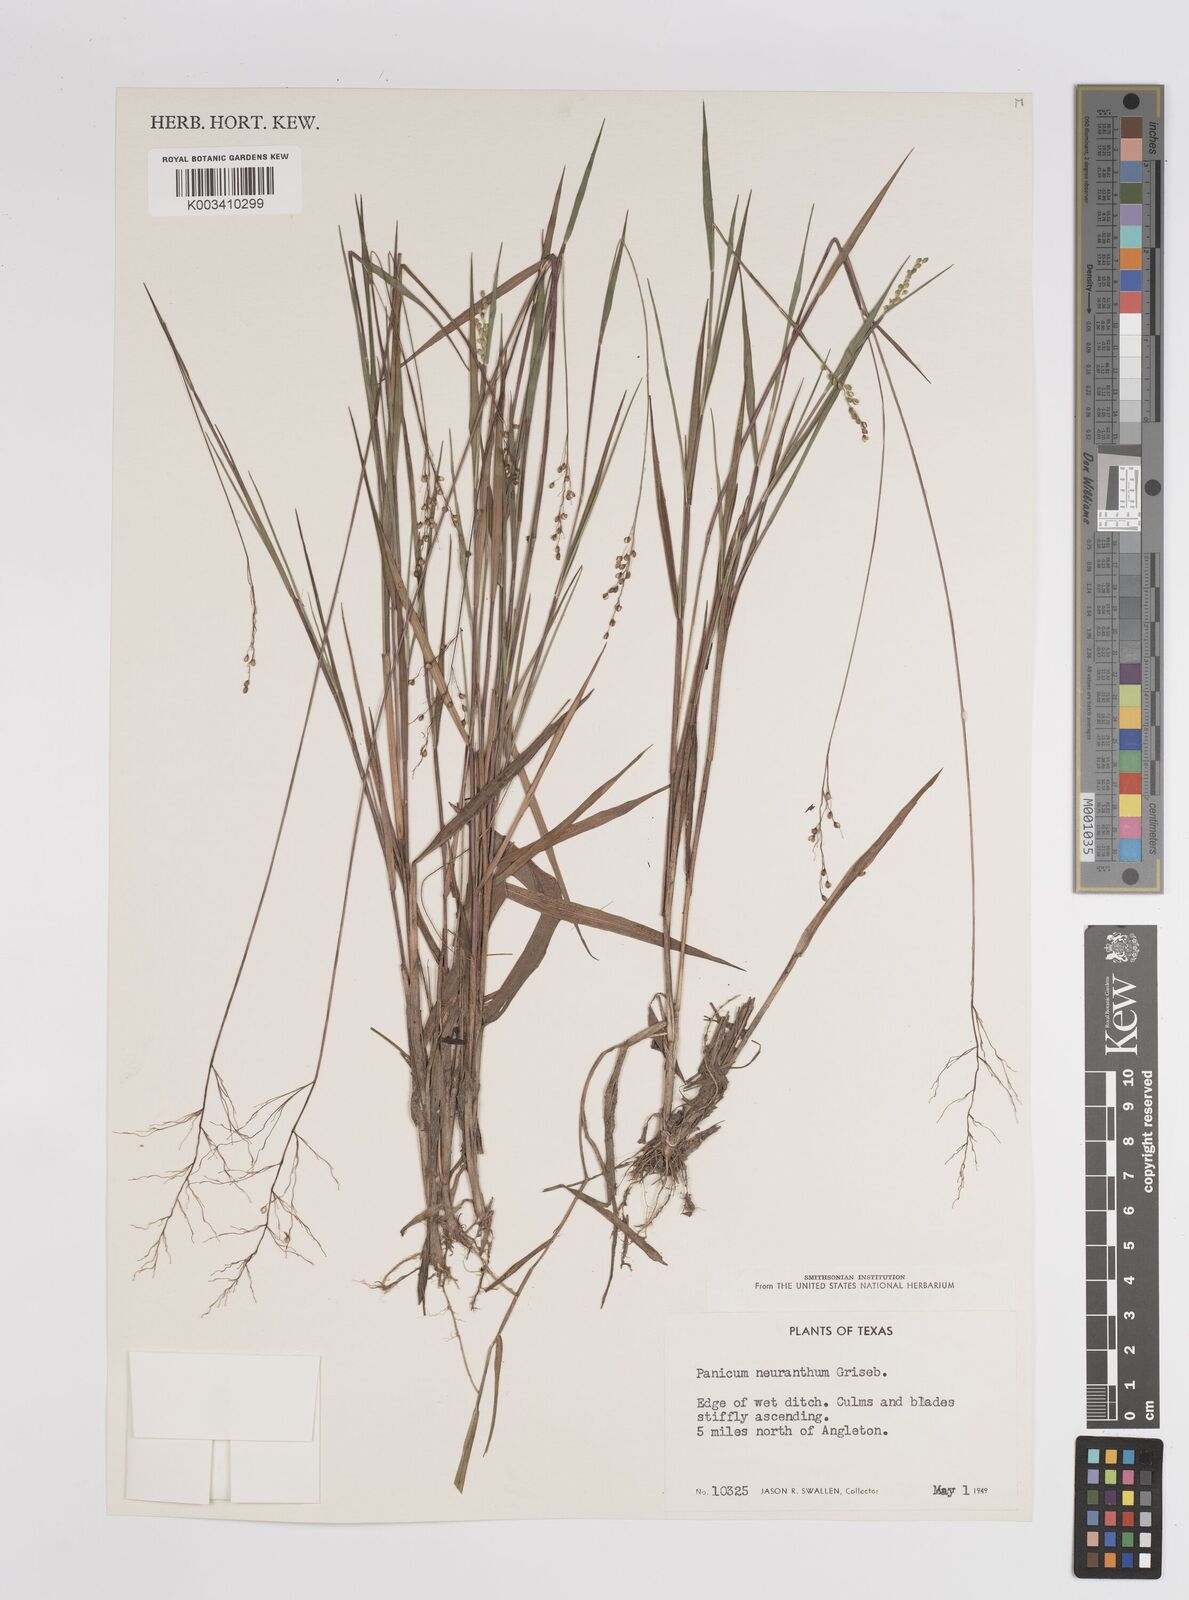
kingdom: Plantae
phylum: Tracheophyta
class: Liliopsida
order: Poales
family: Poaceae
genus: Dichanthelium
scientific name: Dichanthelium aciculare
